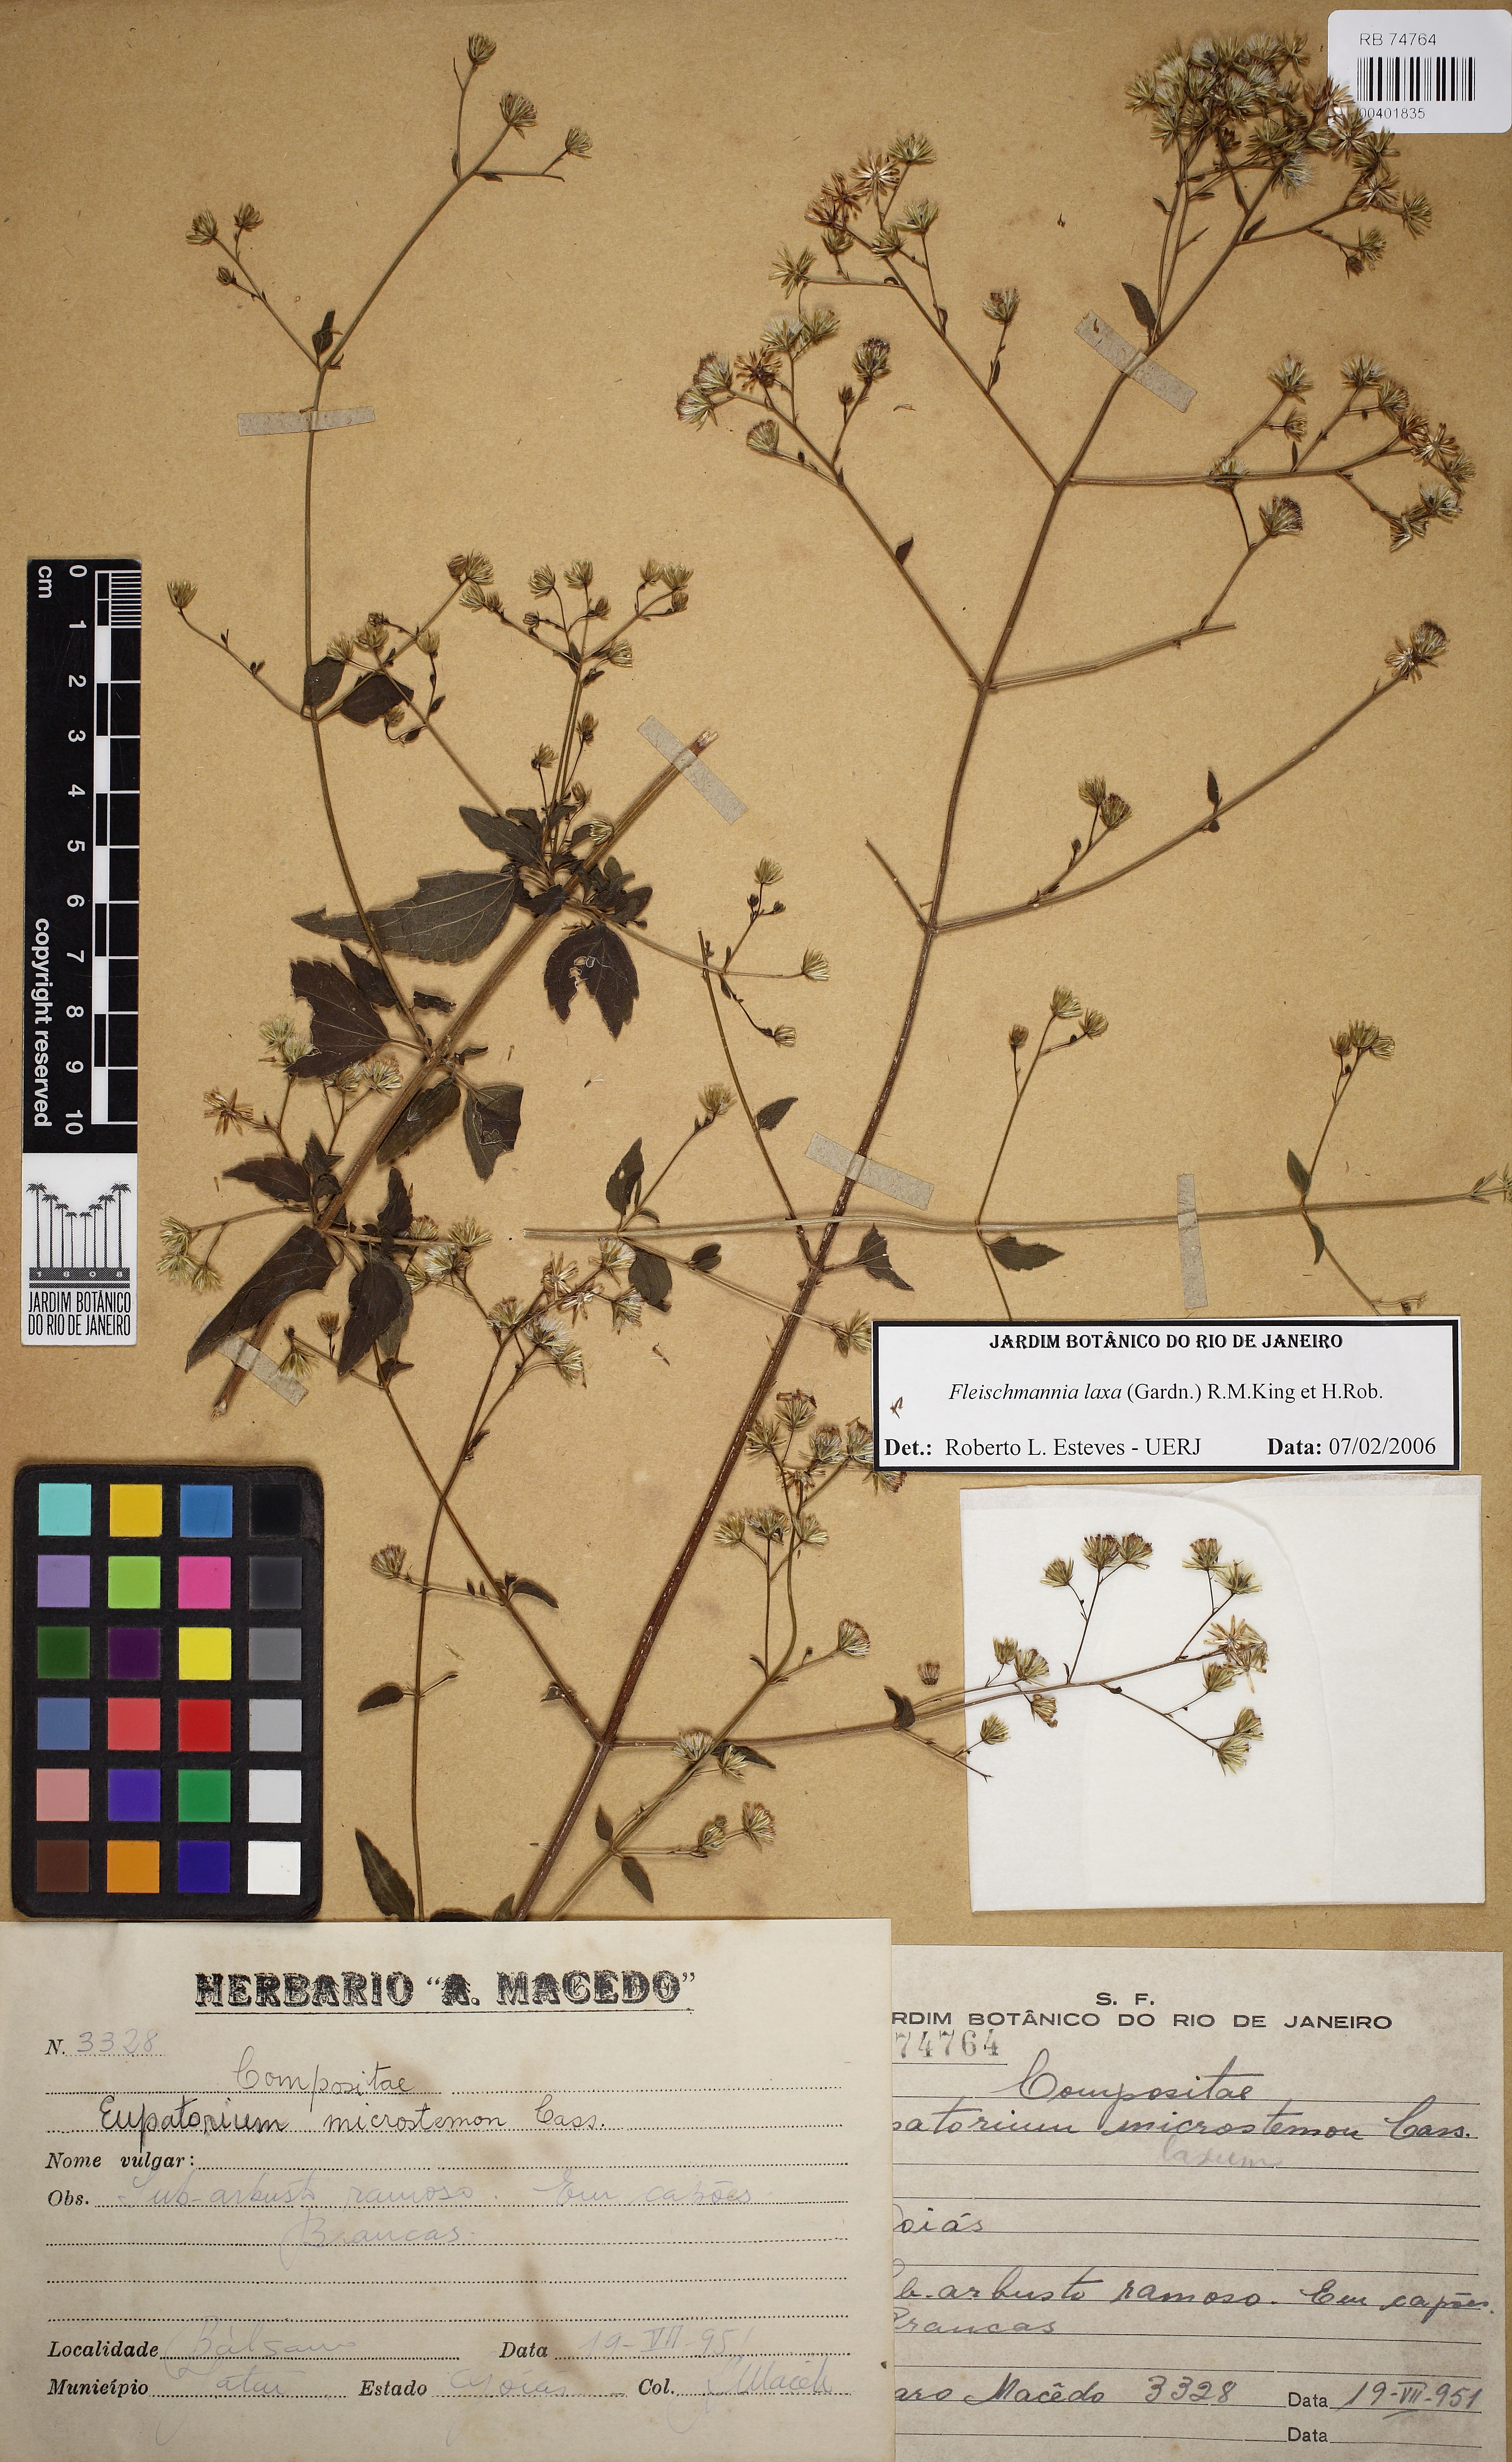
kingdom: Plantae
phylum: Tracheophyta
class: Magnoliopsida
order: Asterales
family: Asteraceae
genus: Fleischmannia
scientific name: Fleischmannia laxa
